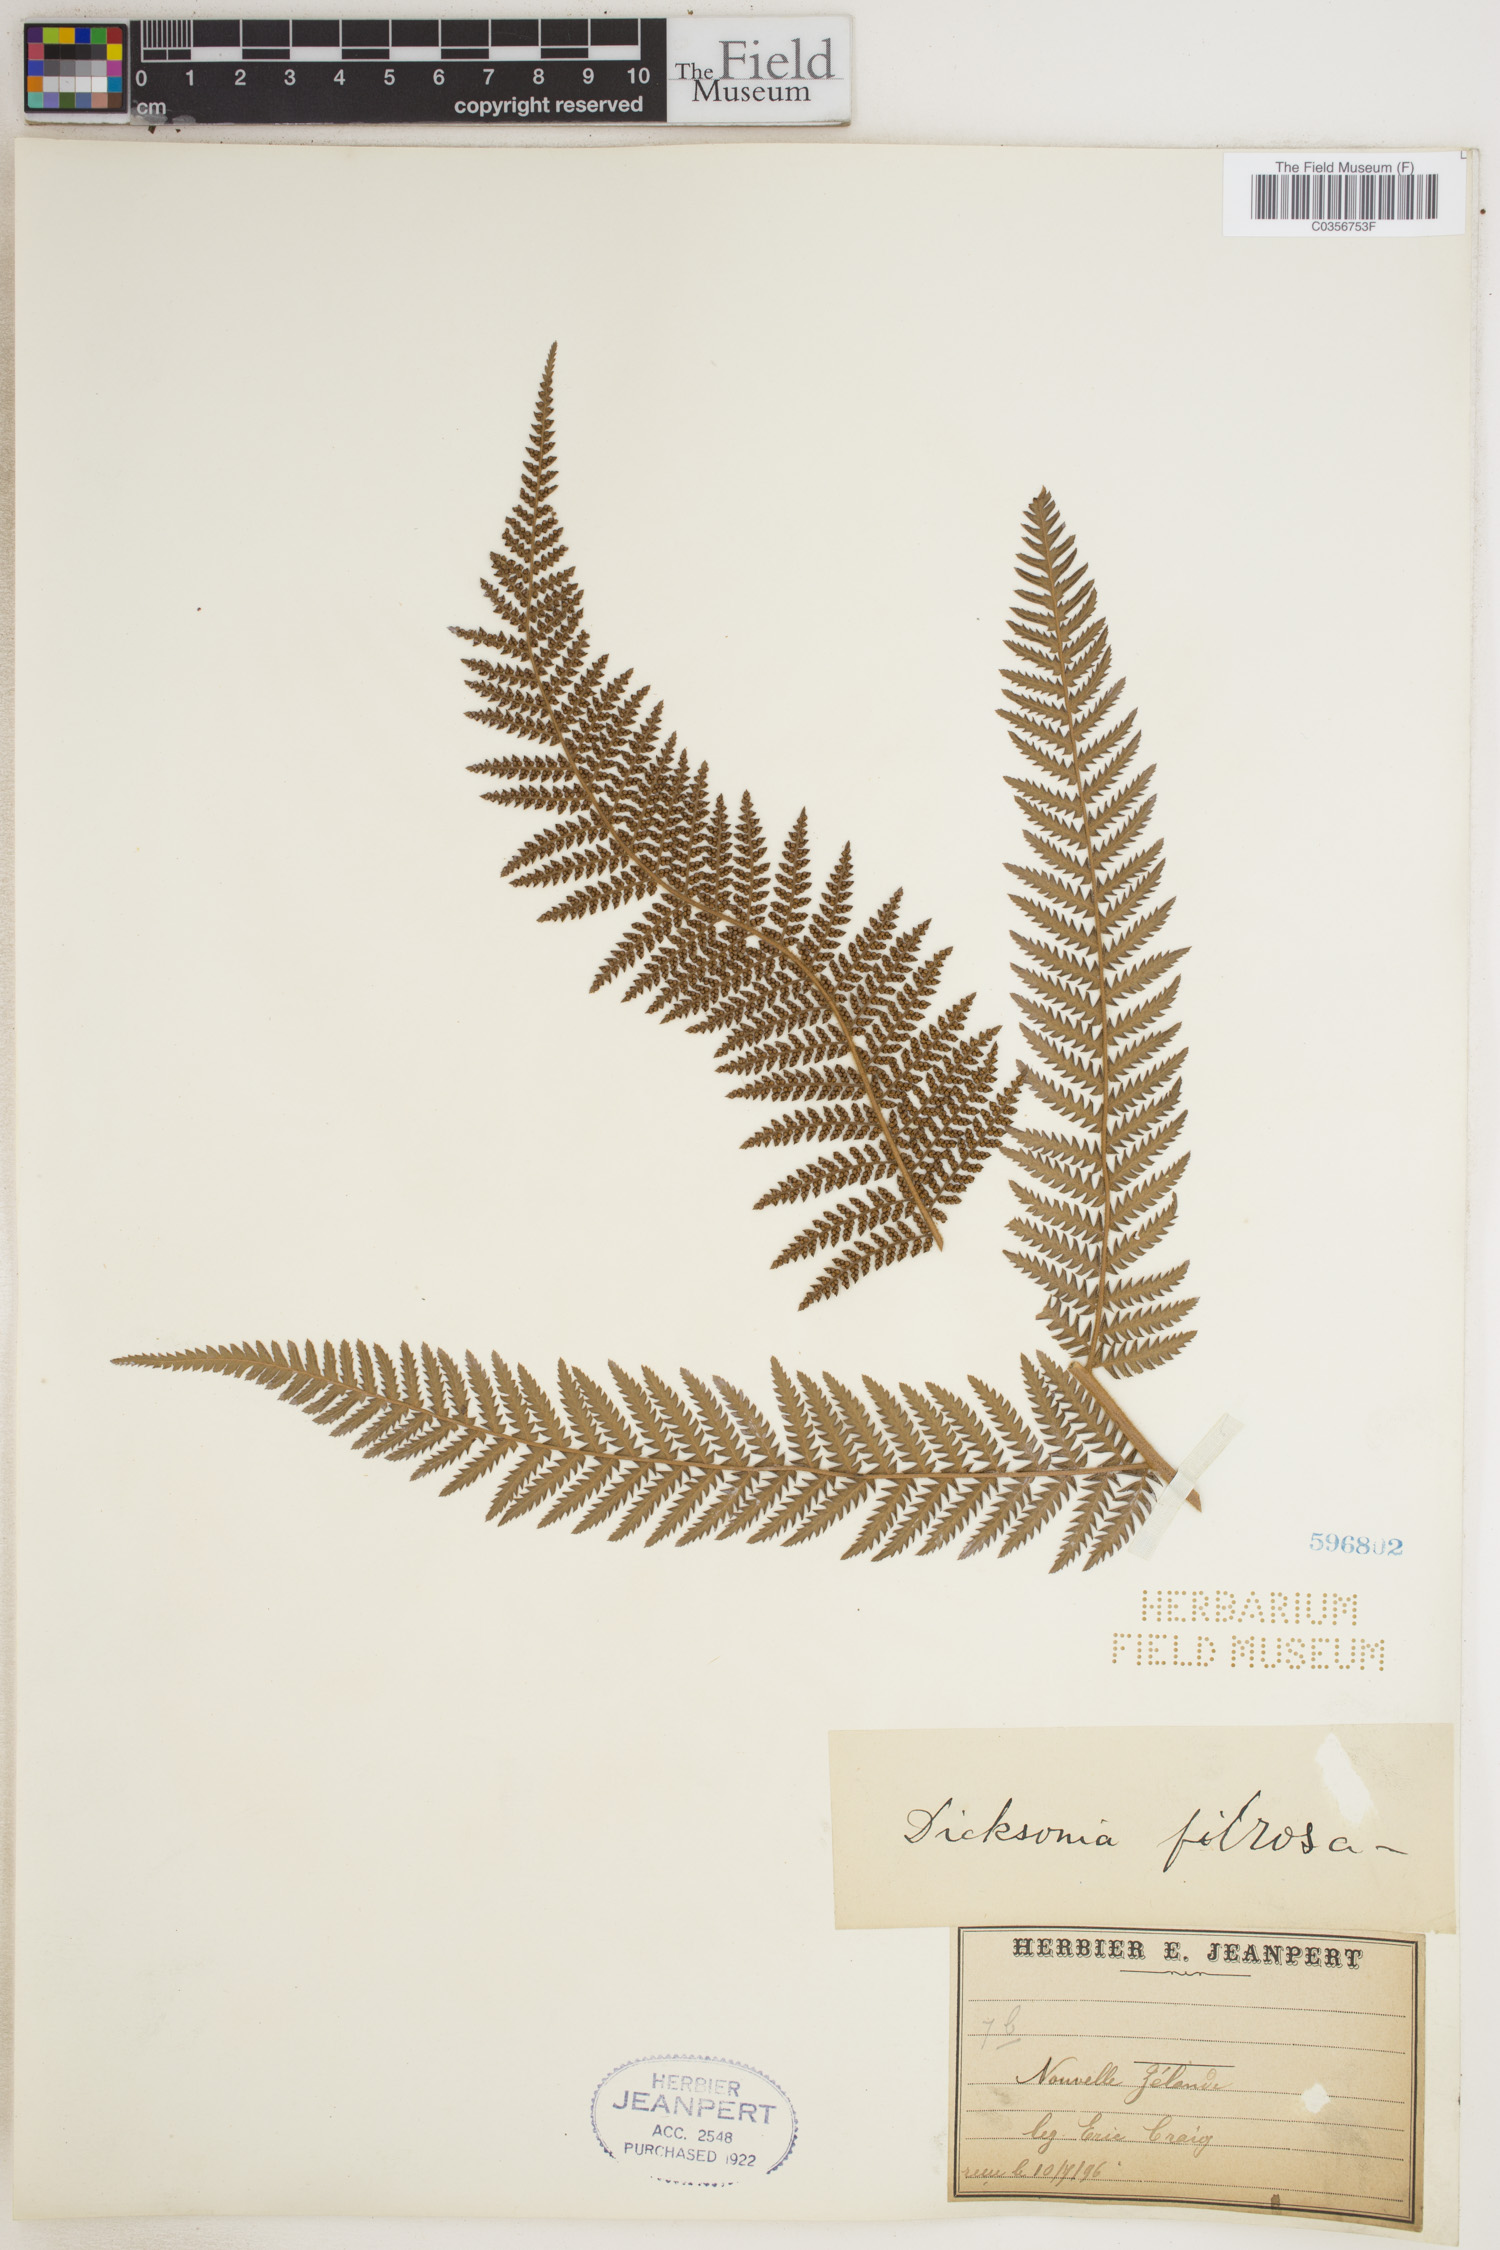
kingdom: Plantae
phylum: Tracheophyta
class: Polypodiopsida
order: Cyatheales
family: Dicksoniaceae
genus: Dicksonia
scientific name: Dicksonia fibrosa
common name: Golden tree fern
